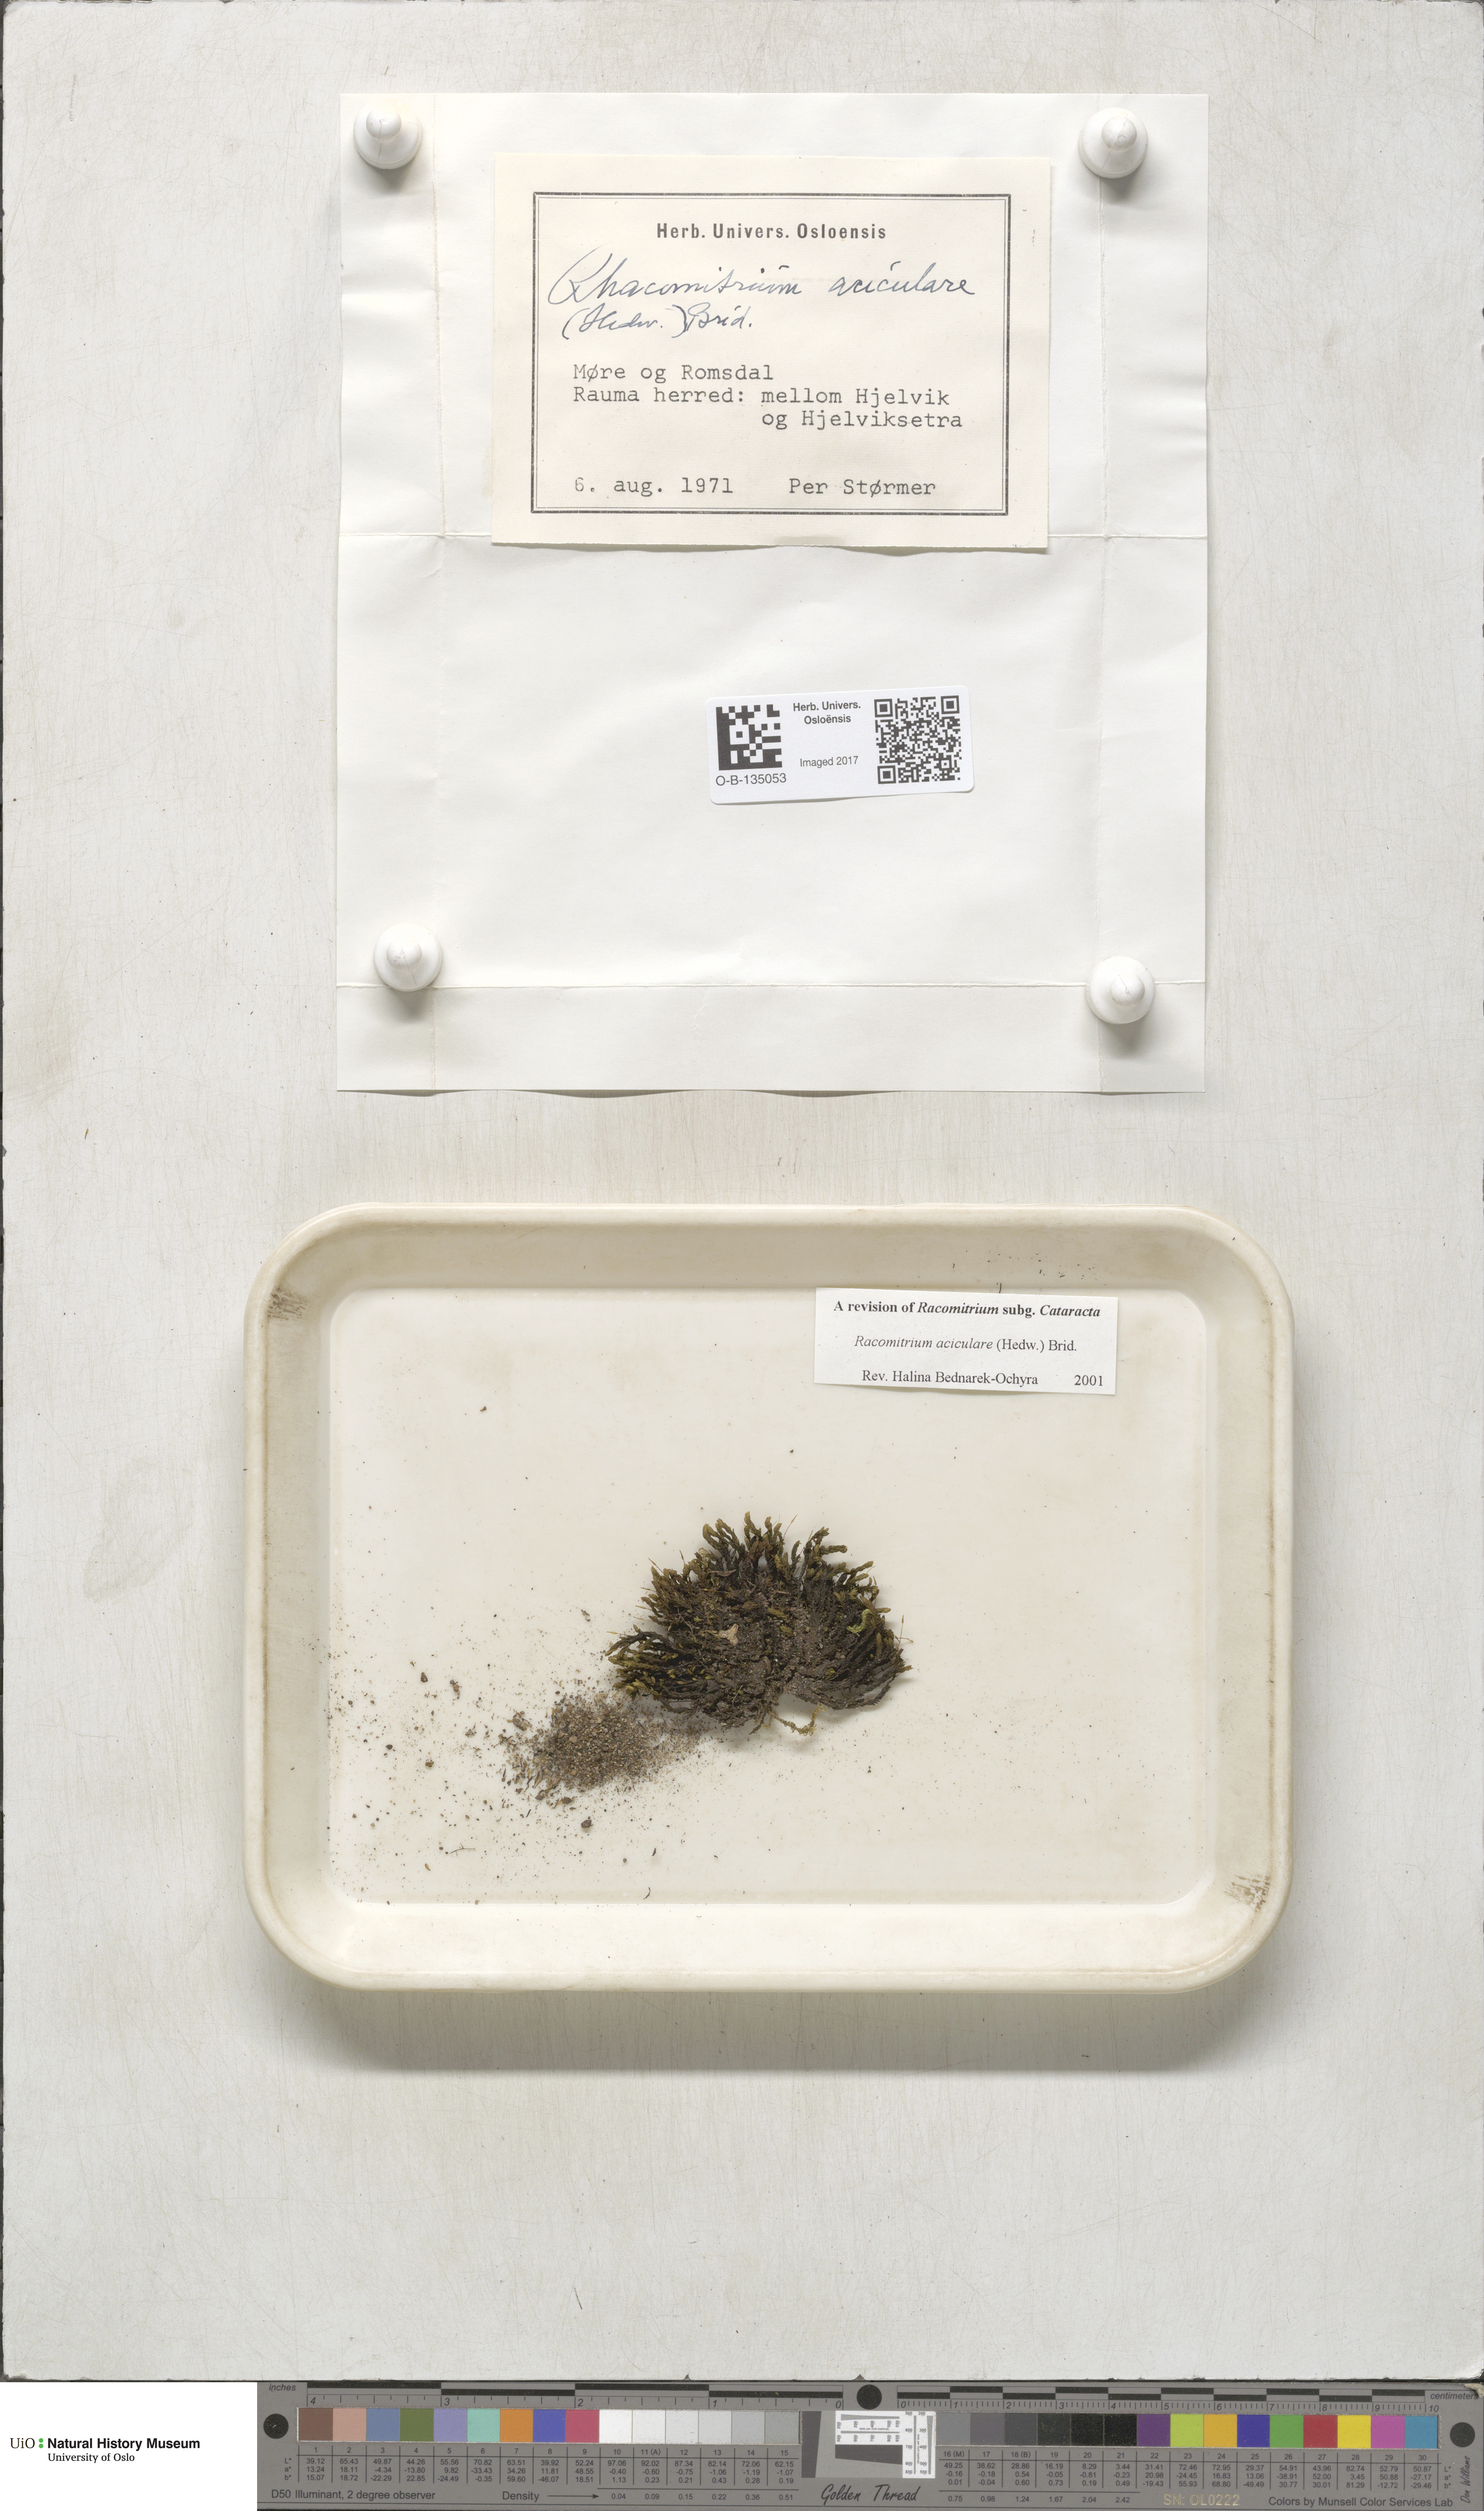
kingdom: Plantae
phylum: Bryophyta
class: Bryopsida
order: Grimmiales
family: Grimmiaceae
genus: Codriophorus
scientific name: Codriophorus acicularis
